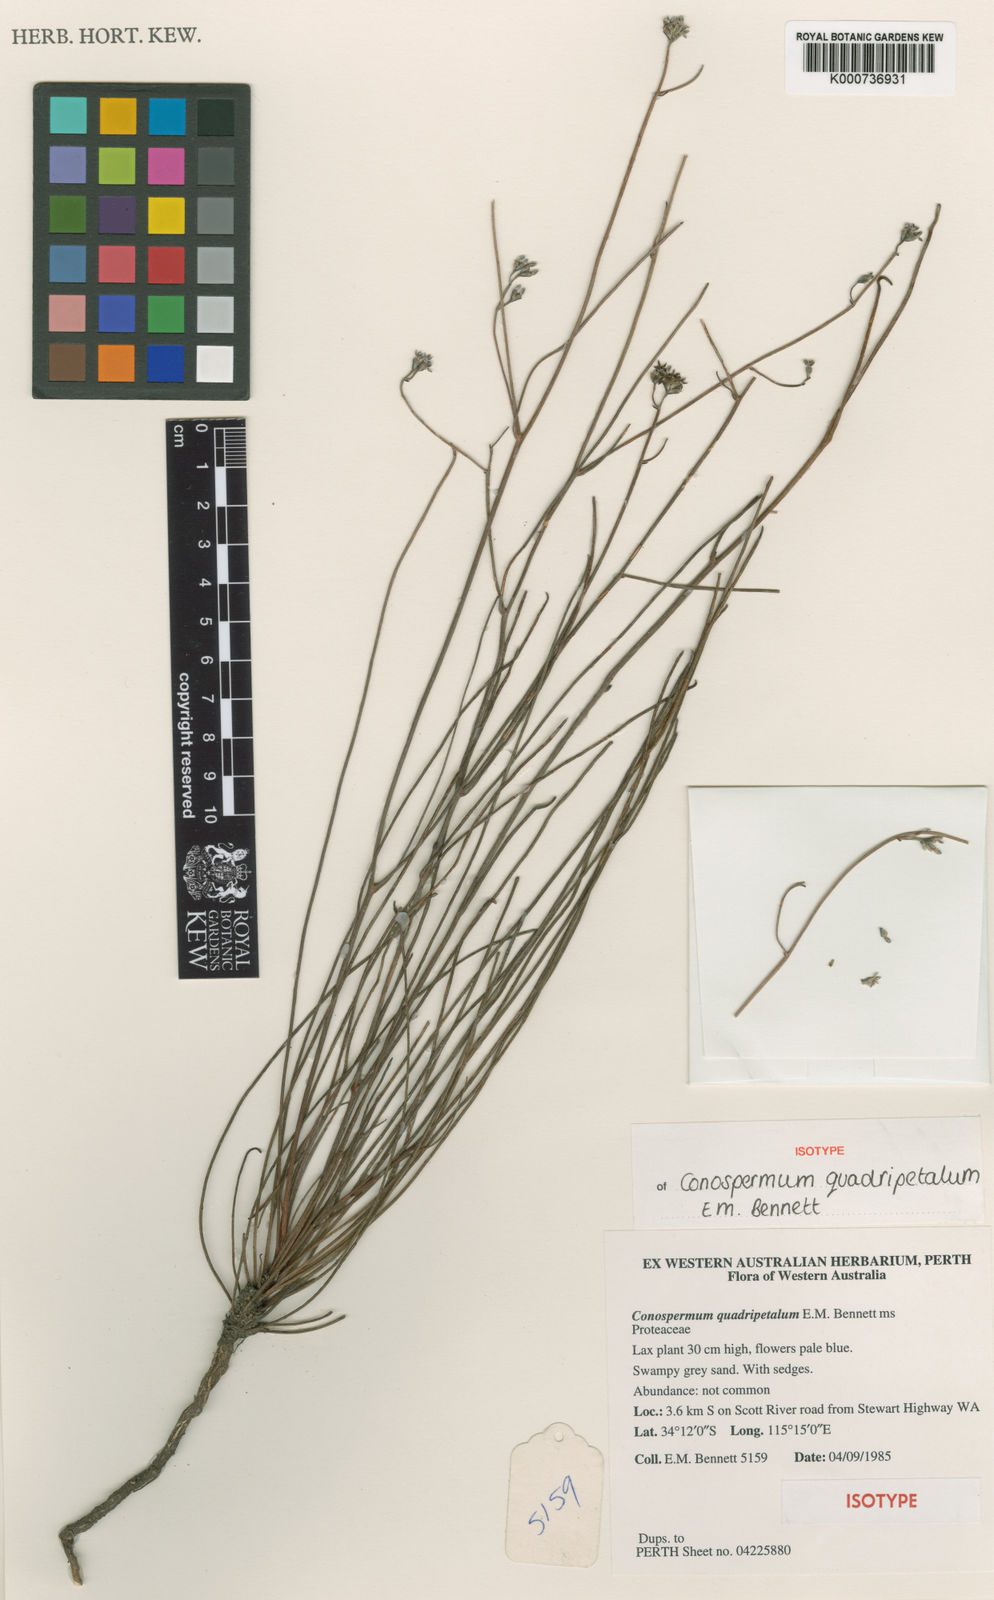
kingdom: Plantae
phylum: Tracheophyta
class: Magnoliopsida
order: Proteales
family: Proteaceae
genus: Conospermum
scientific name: Conospermum quadripetalum
